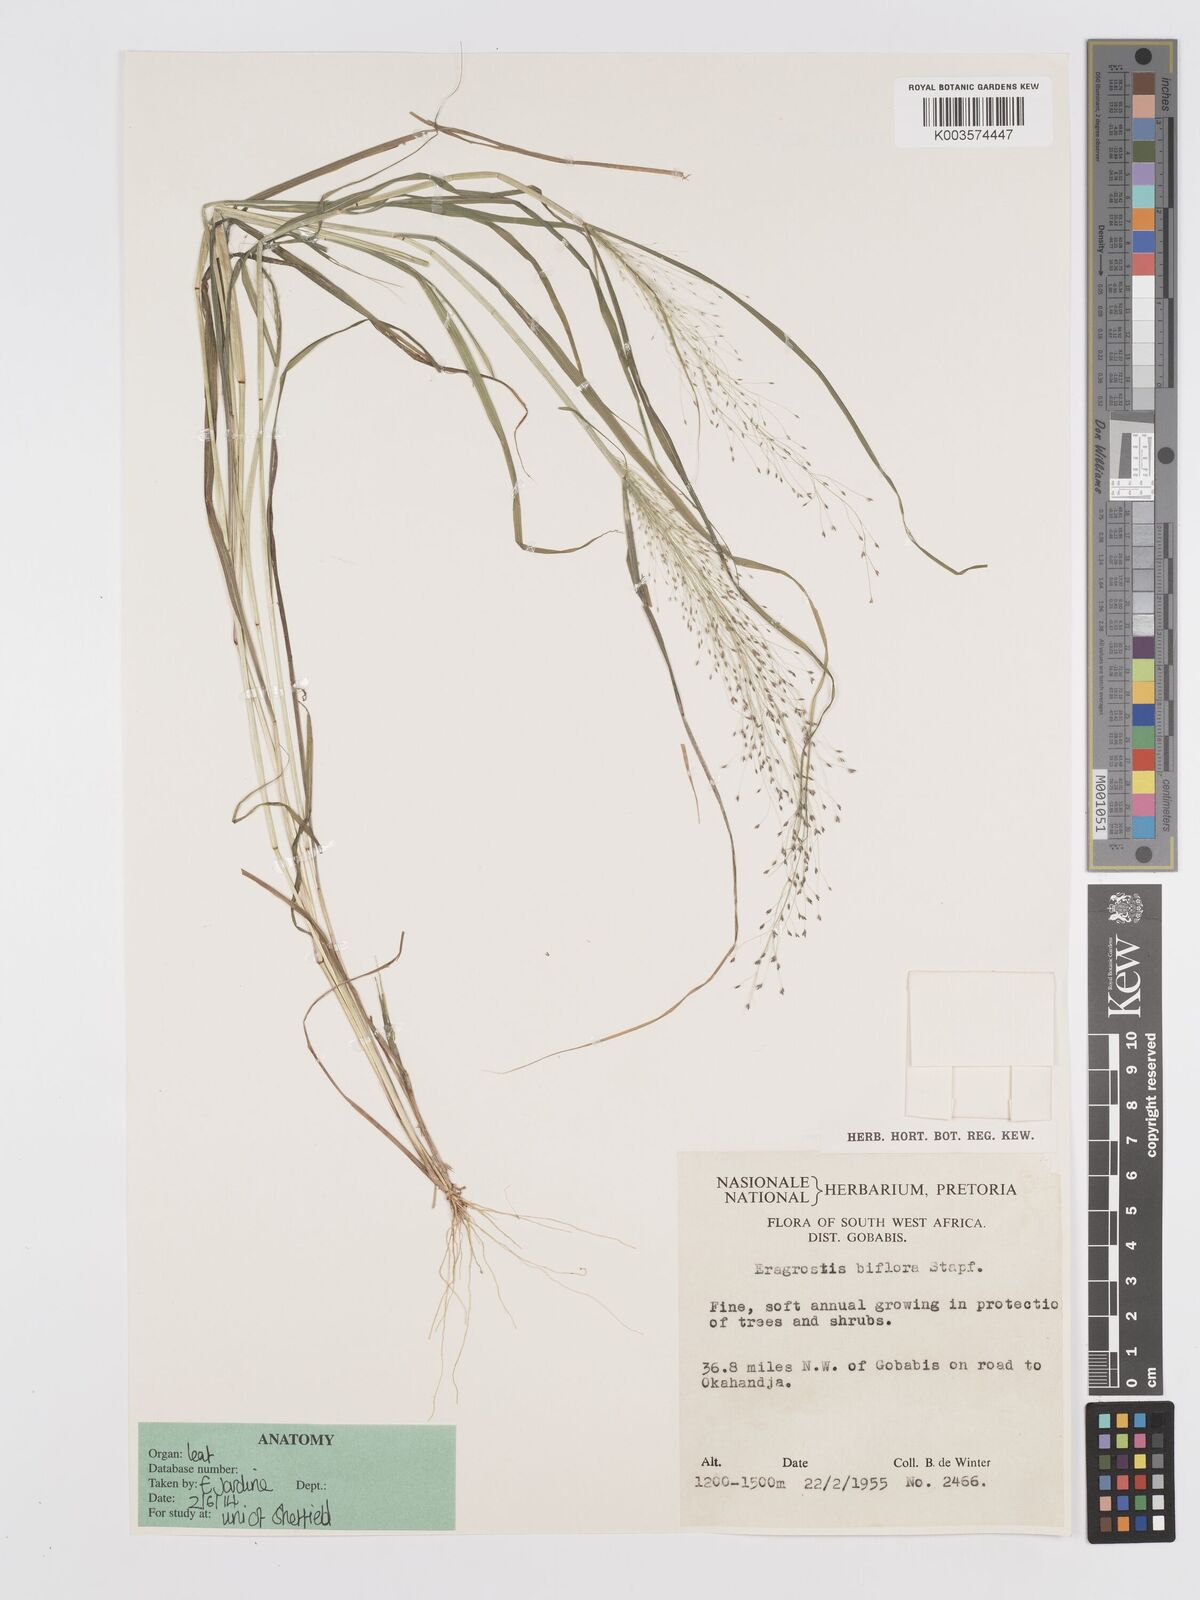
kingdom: Plantae
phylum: Tracheophyta
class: Liliopsida
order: Poales
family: Poaceae
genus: Eragrostis
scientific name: Eragrostis biflora
